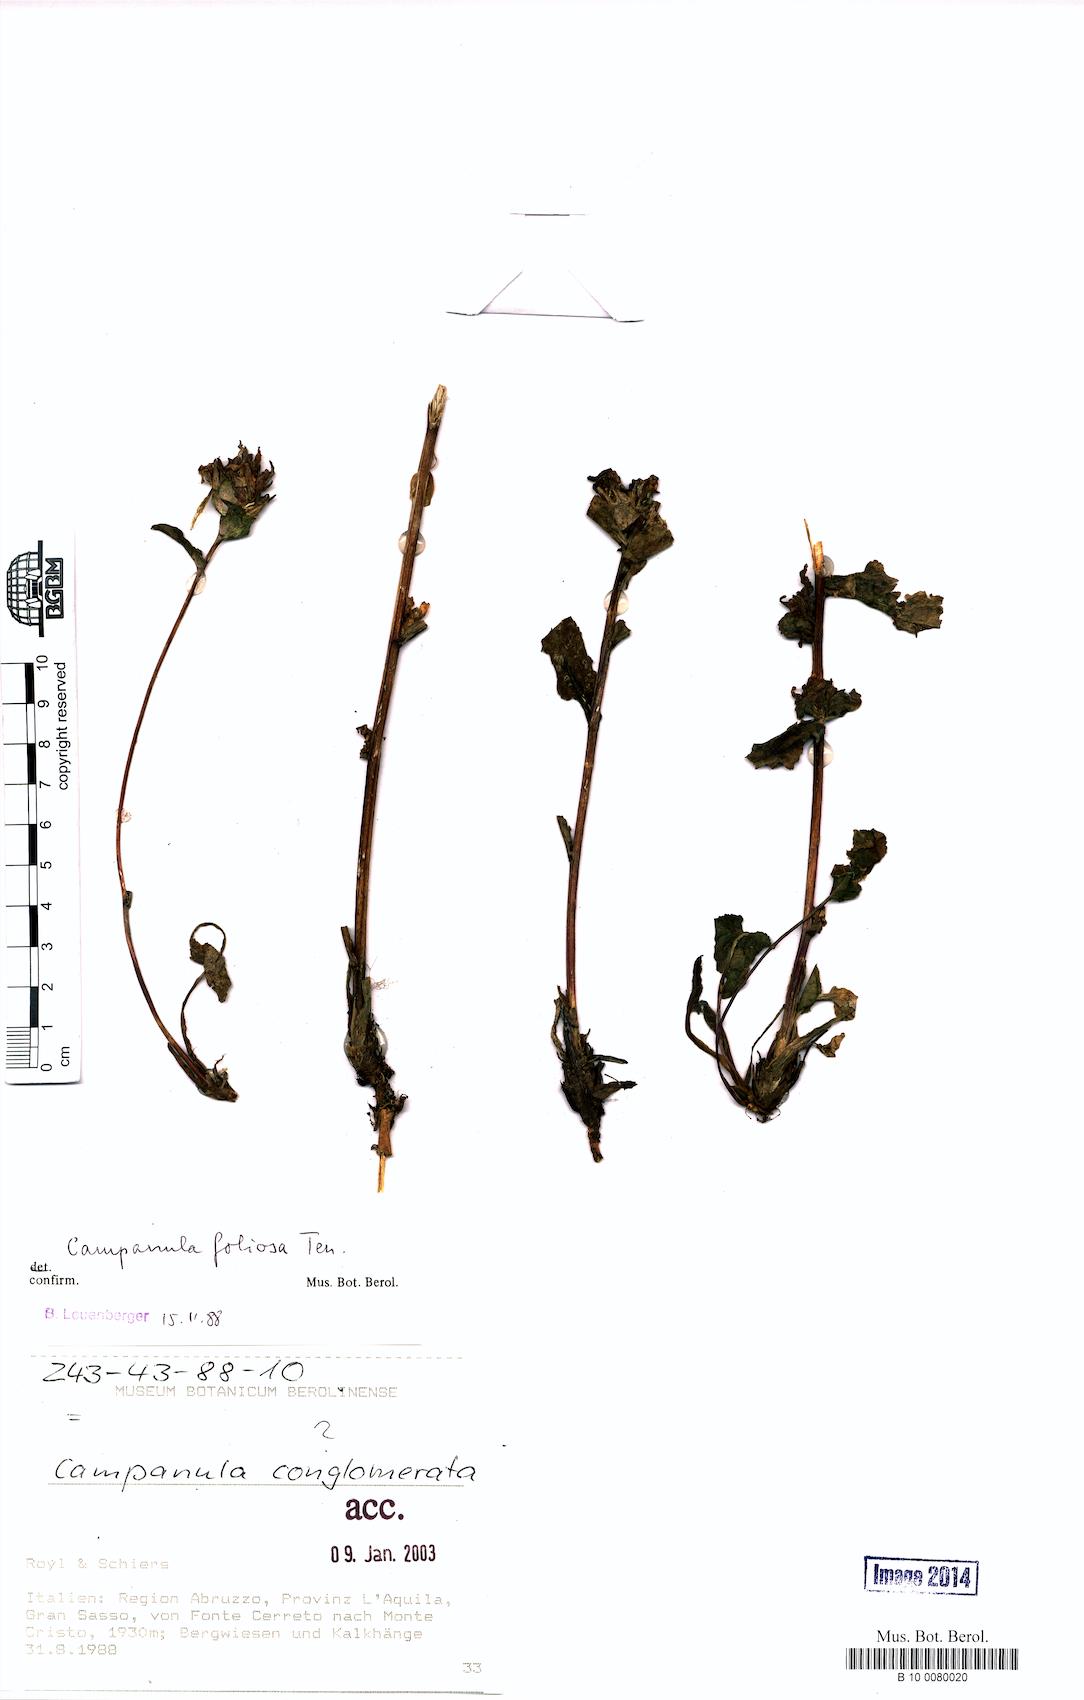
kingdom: Plantae
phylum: Tracheophyta
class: Magnoliopsida
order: Asterales
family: Campanulaceae
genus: Campanula
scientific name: Campanula foliosa
